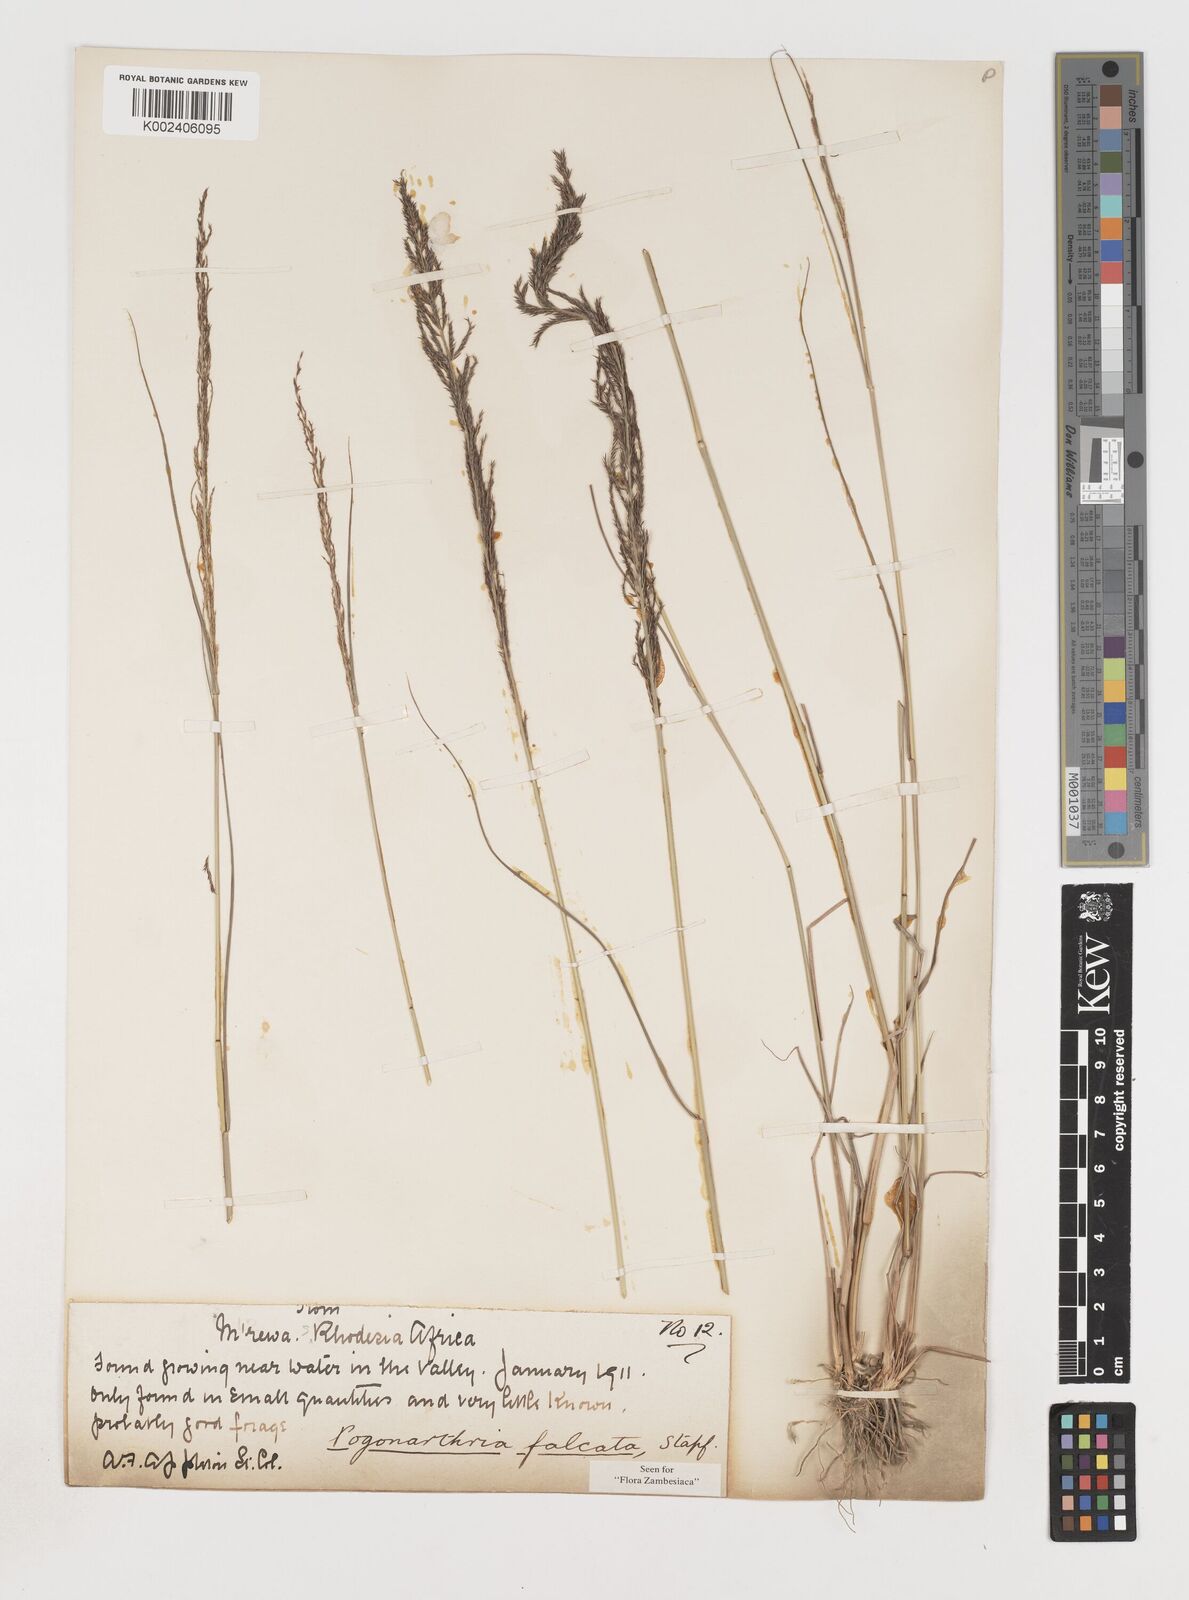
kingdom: Plantae
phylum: Tracheophyta
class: Liliopsida
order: Poales
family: Poaceae
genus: Pogonarthria
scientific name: Pogonarthria squarrosa
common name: Grass
